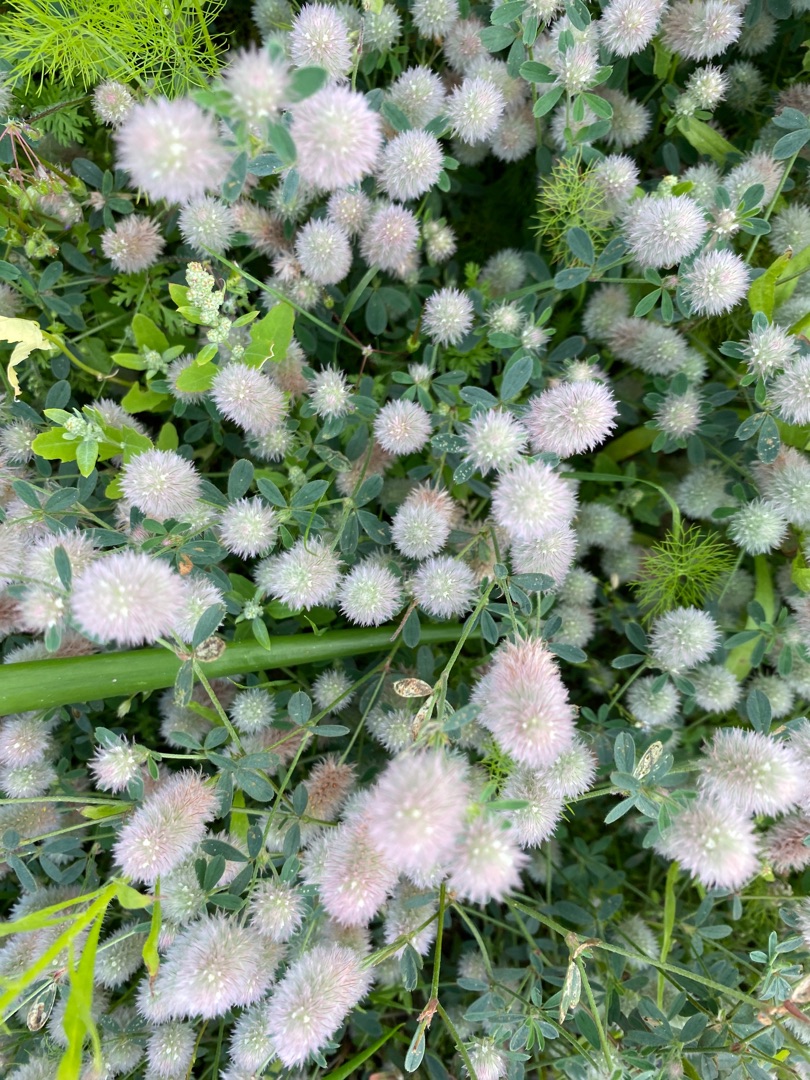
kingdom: Plantae
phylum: Tracheophyta
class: Magnoliopsida
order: Fabales
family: Fabaceae
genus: Trifolium
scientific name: Trifolium arvense
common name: Hare-kløver
